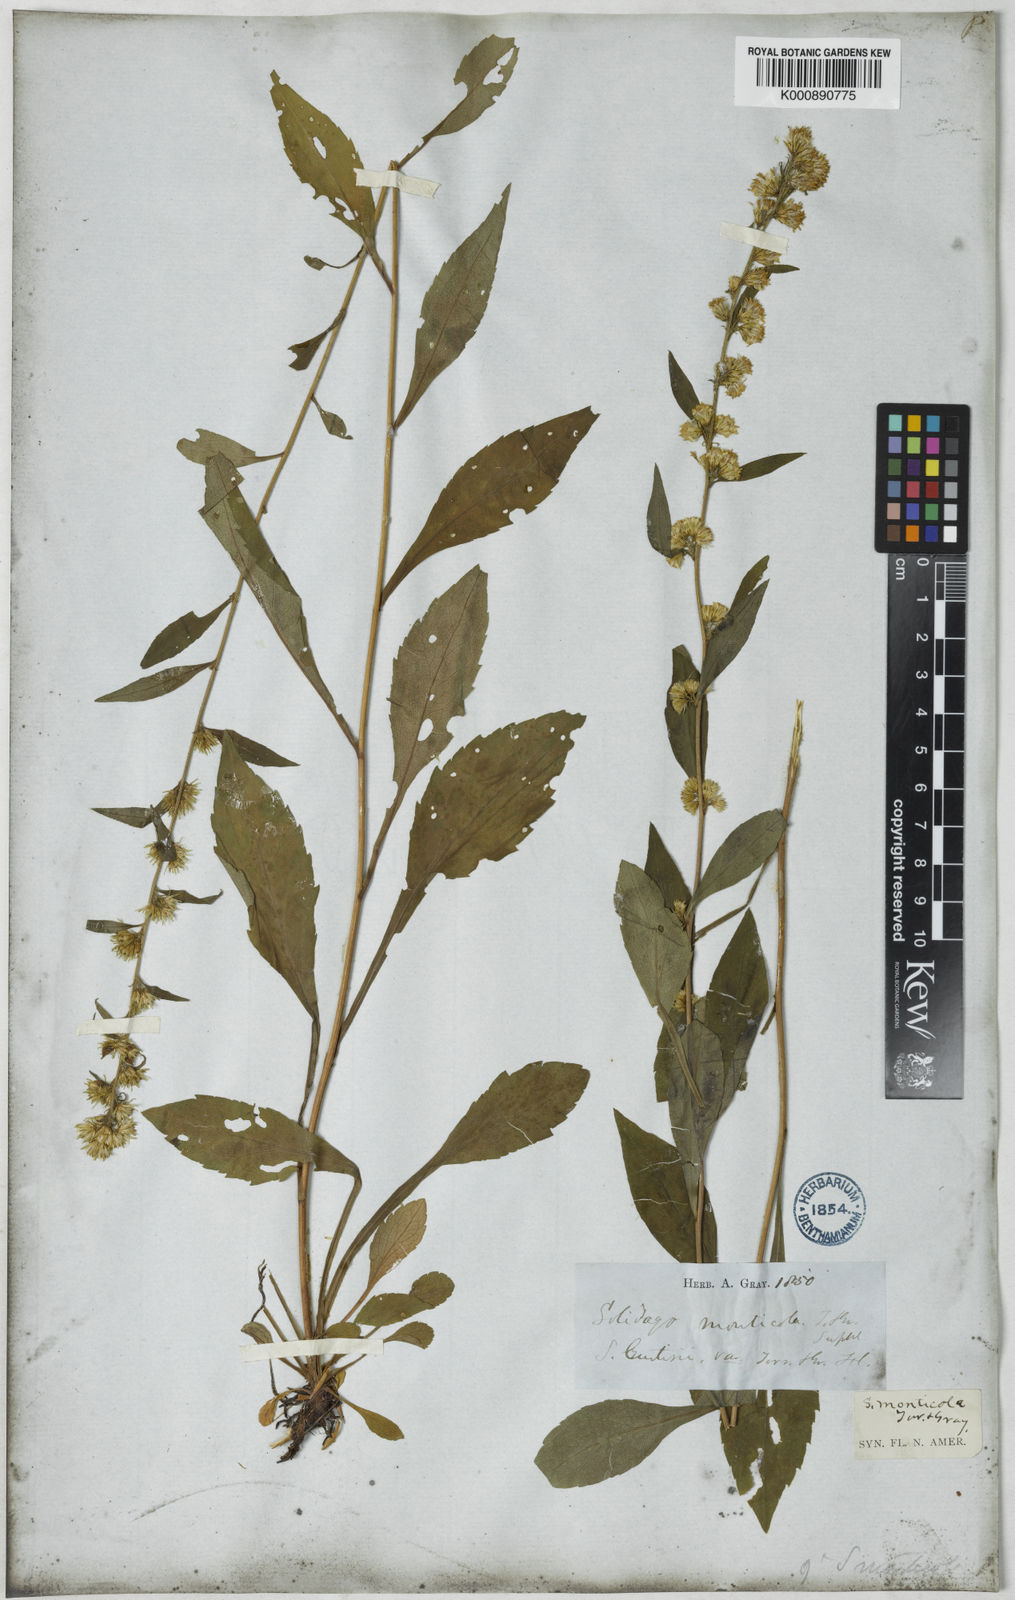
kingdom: Plantae
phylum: Tracheophyta
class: Magnoliopsida
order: Asterales
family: Asteraceae
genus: Solidago
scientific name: Solidago roanensis
